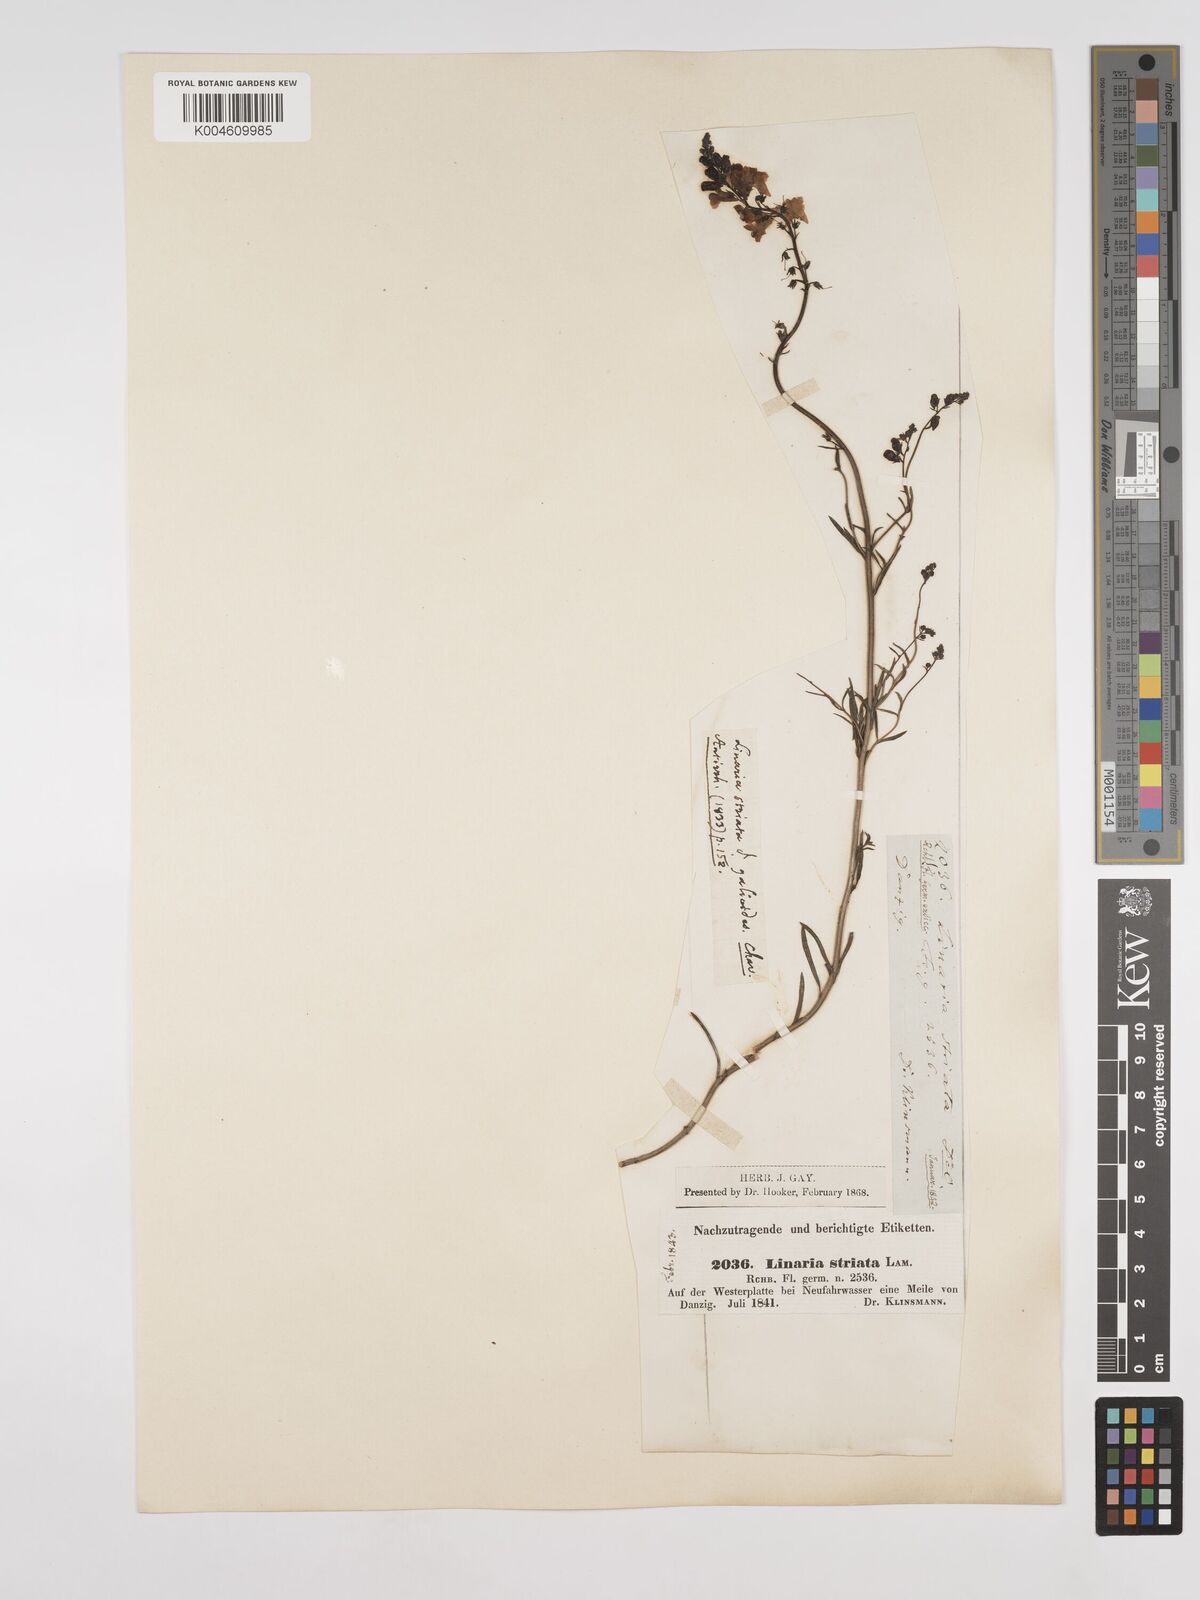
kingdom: Plantae
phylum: Tracheophyta
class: Magnoliopsida
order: Lamiales
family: Plantaginaceae
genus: Linaria
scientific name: Linaria
